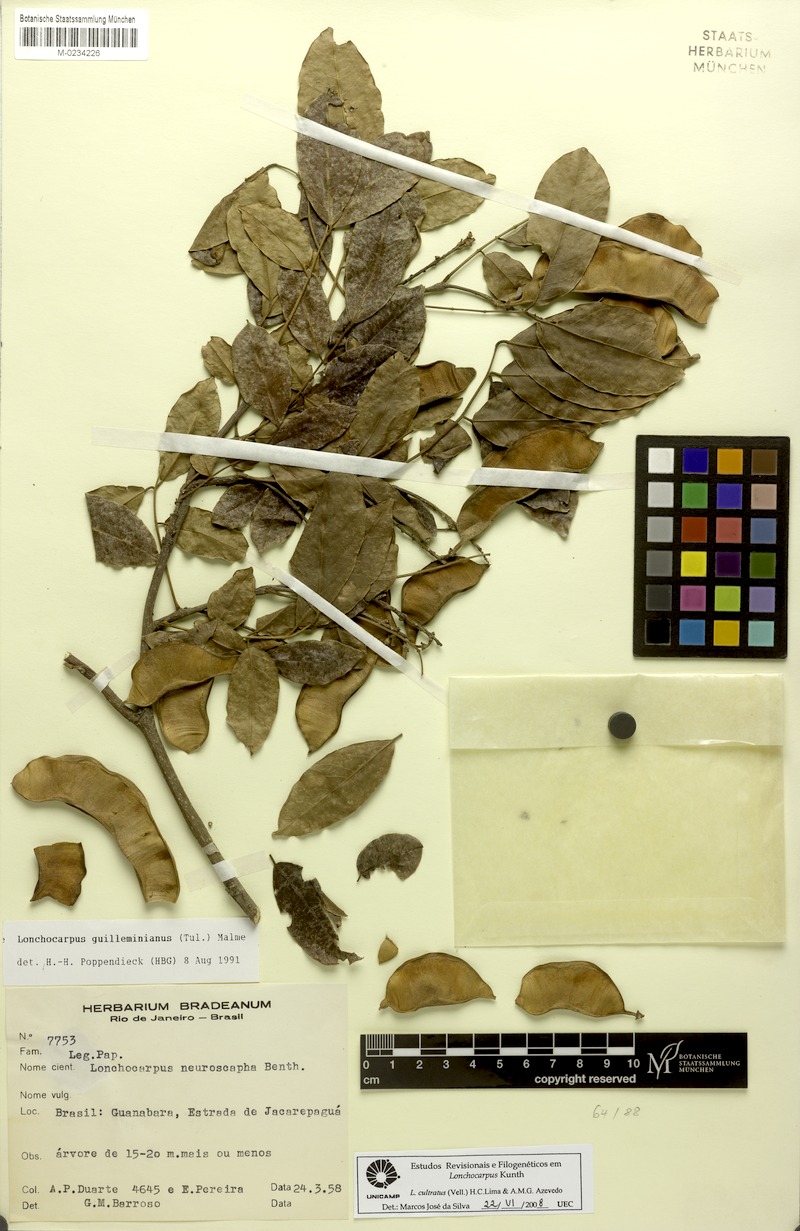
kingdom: Plantae
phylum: Tracheophyta
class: Magnoliopsida
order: Fabales
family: Fabaceae
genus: Lonchocarpus
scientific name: Lonchocarpus cultratus
